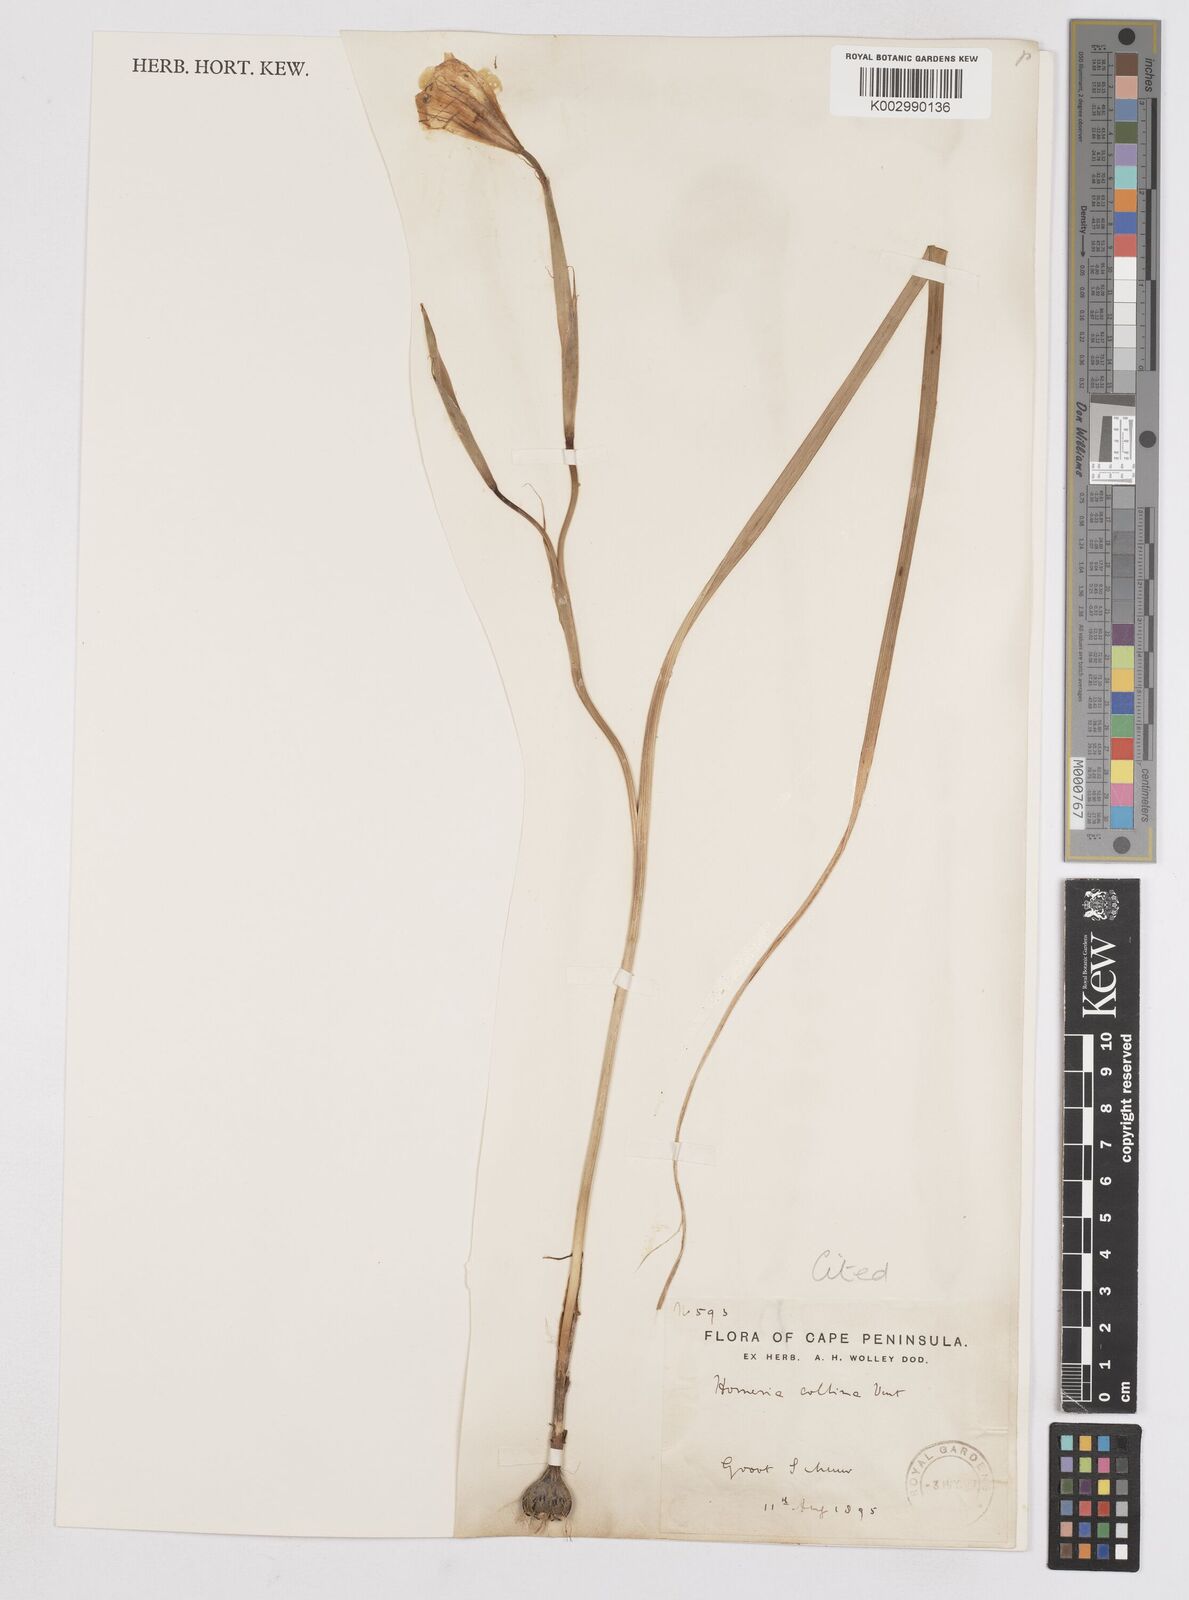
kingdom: Plantae
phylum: Tracheophyta
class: Liliopsida
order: Asparagales
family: Iridaceae
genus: Moraea
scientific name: Moraea collina
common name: Cape-tulip
